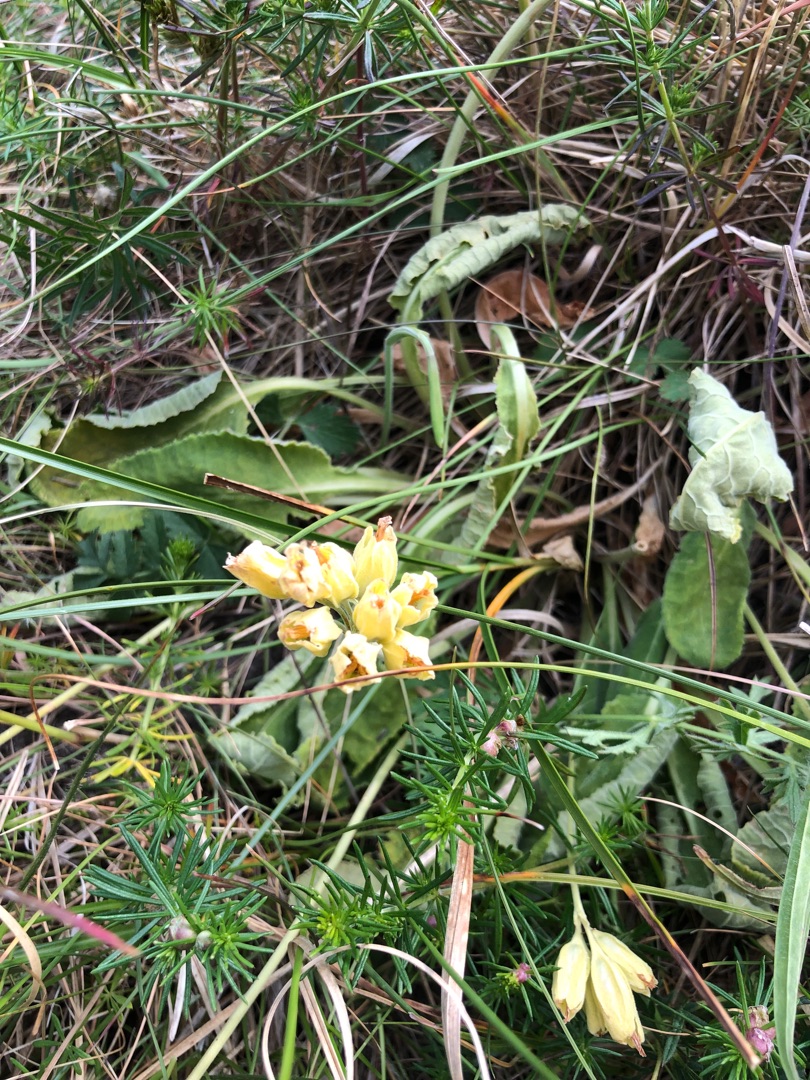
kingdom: Plantae
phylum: Tracheophyta
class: Magnoliopsida
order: Ericales
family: Primulaceae
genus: Primula
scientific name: Primula veris
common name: Hulkravet kodriver
